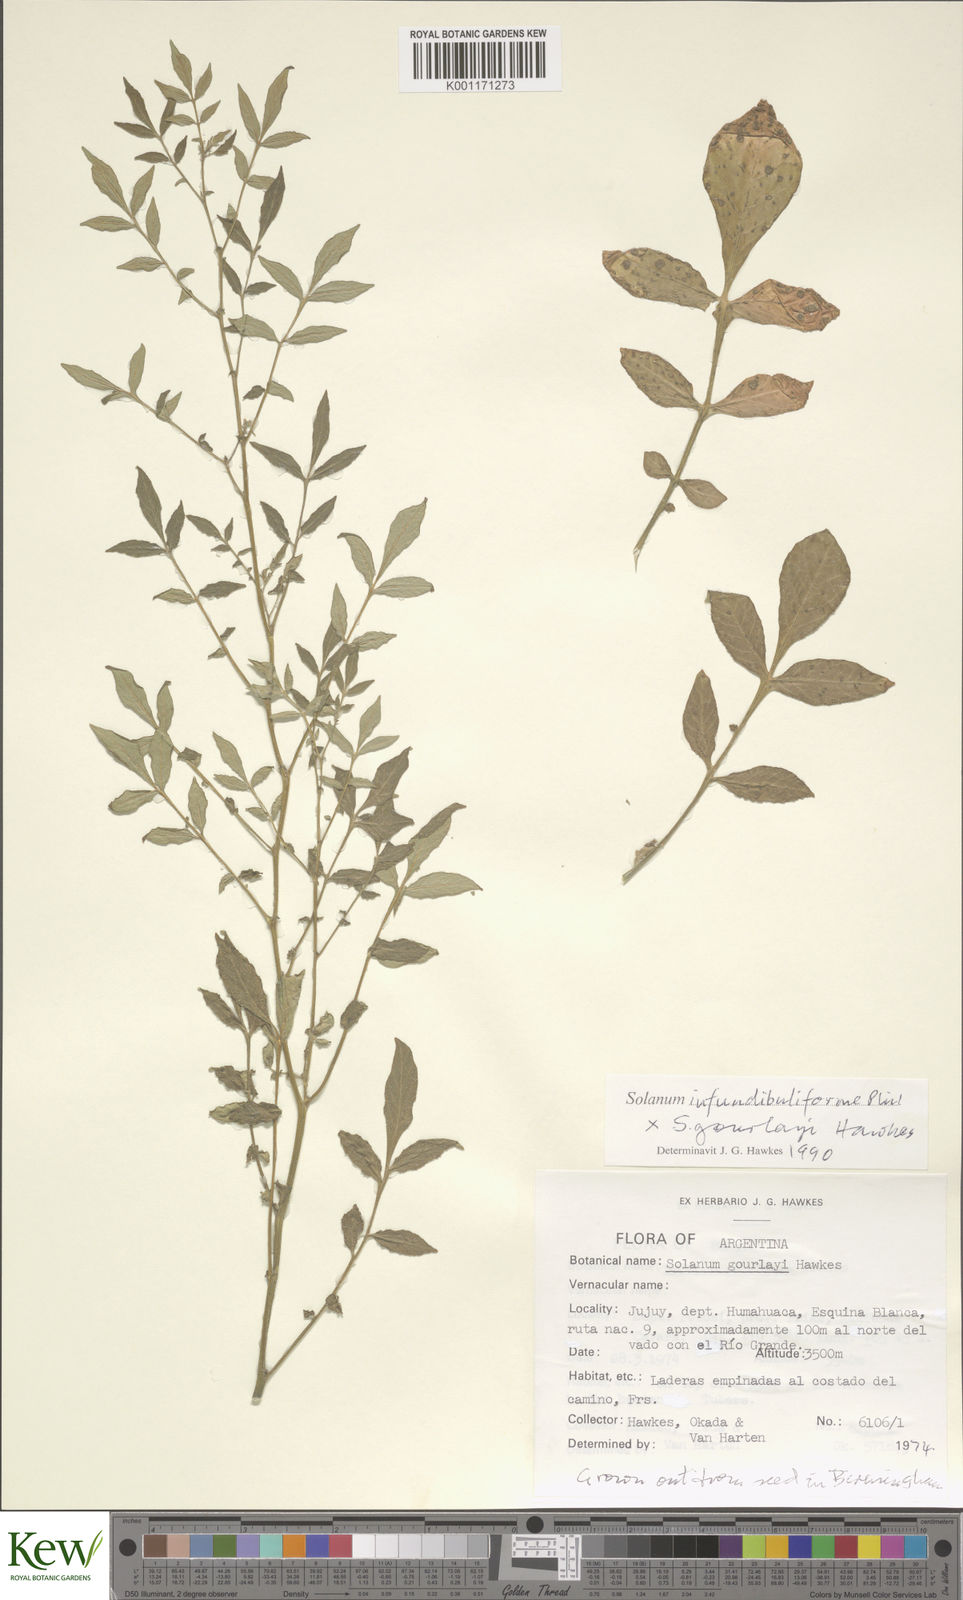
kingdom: Plantae
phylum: Tracheophyta
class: Magnoliopsida
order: Solanales
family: Solanaceae
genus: Solanum
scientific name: Solanum infundibuliforme
